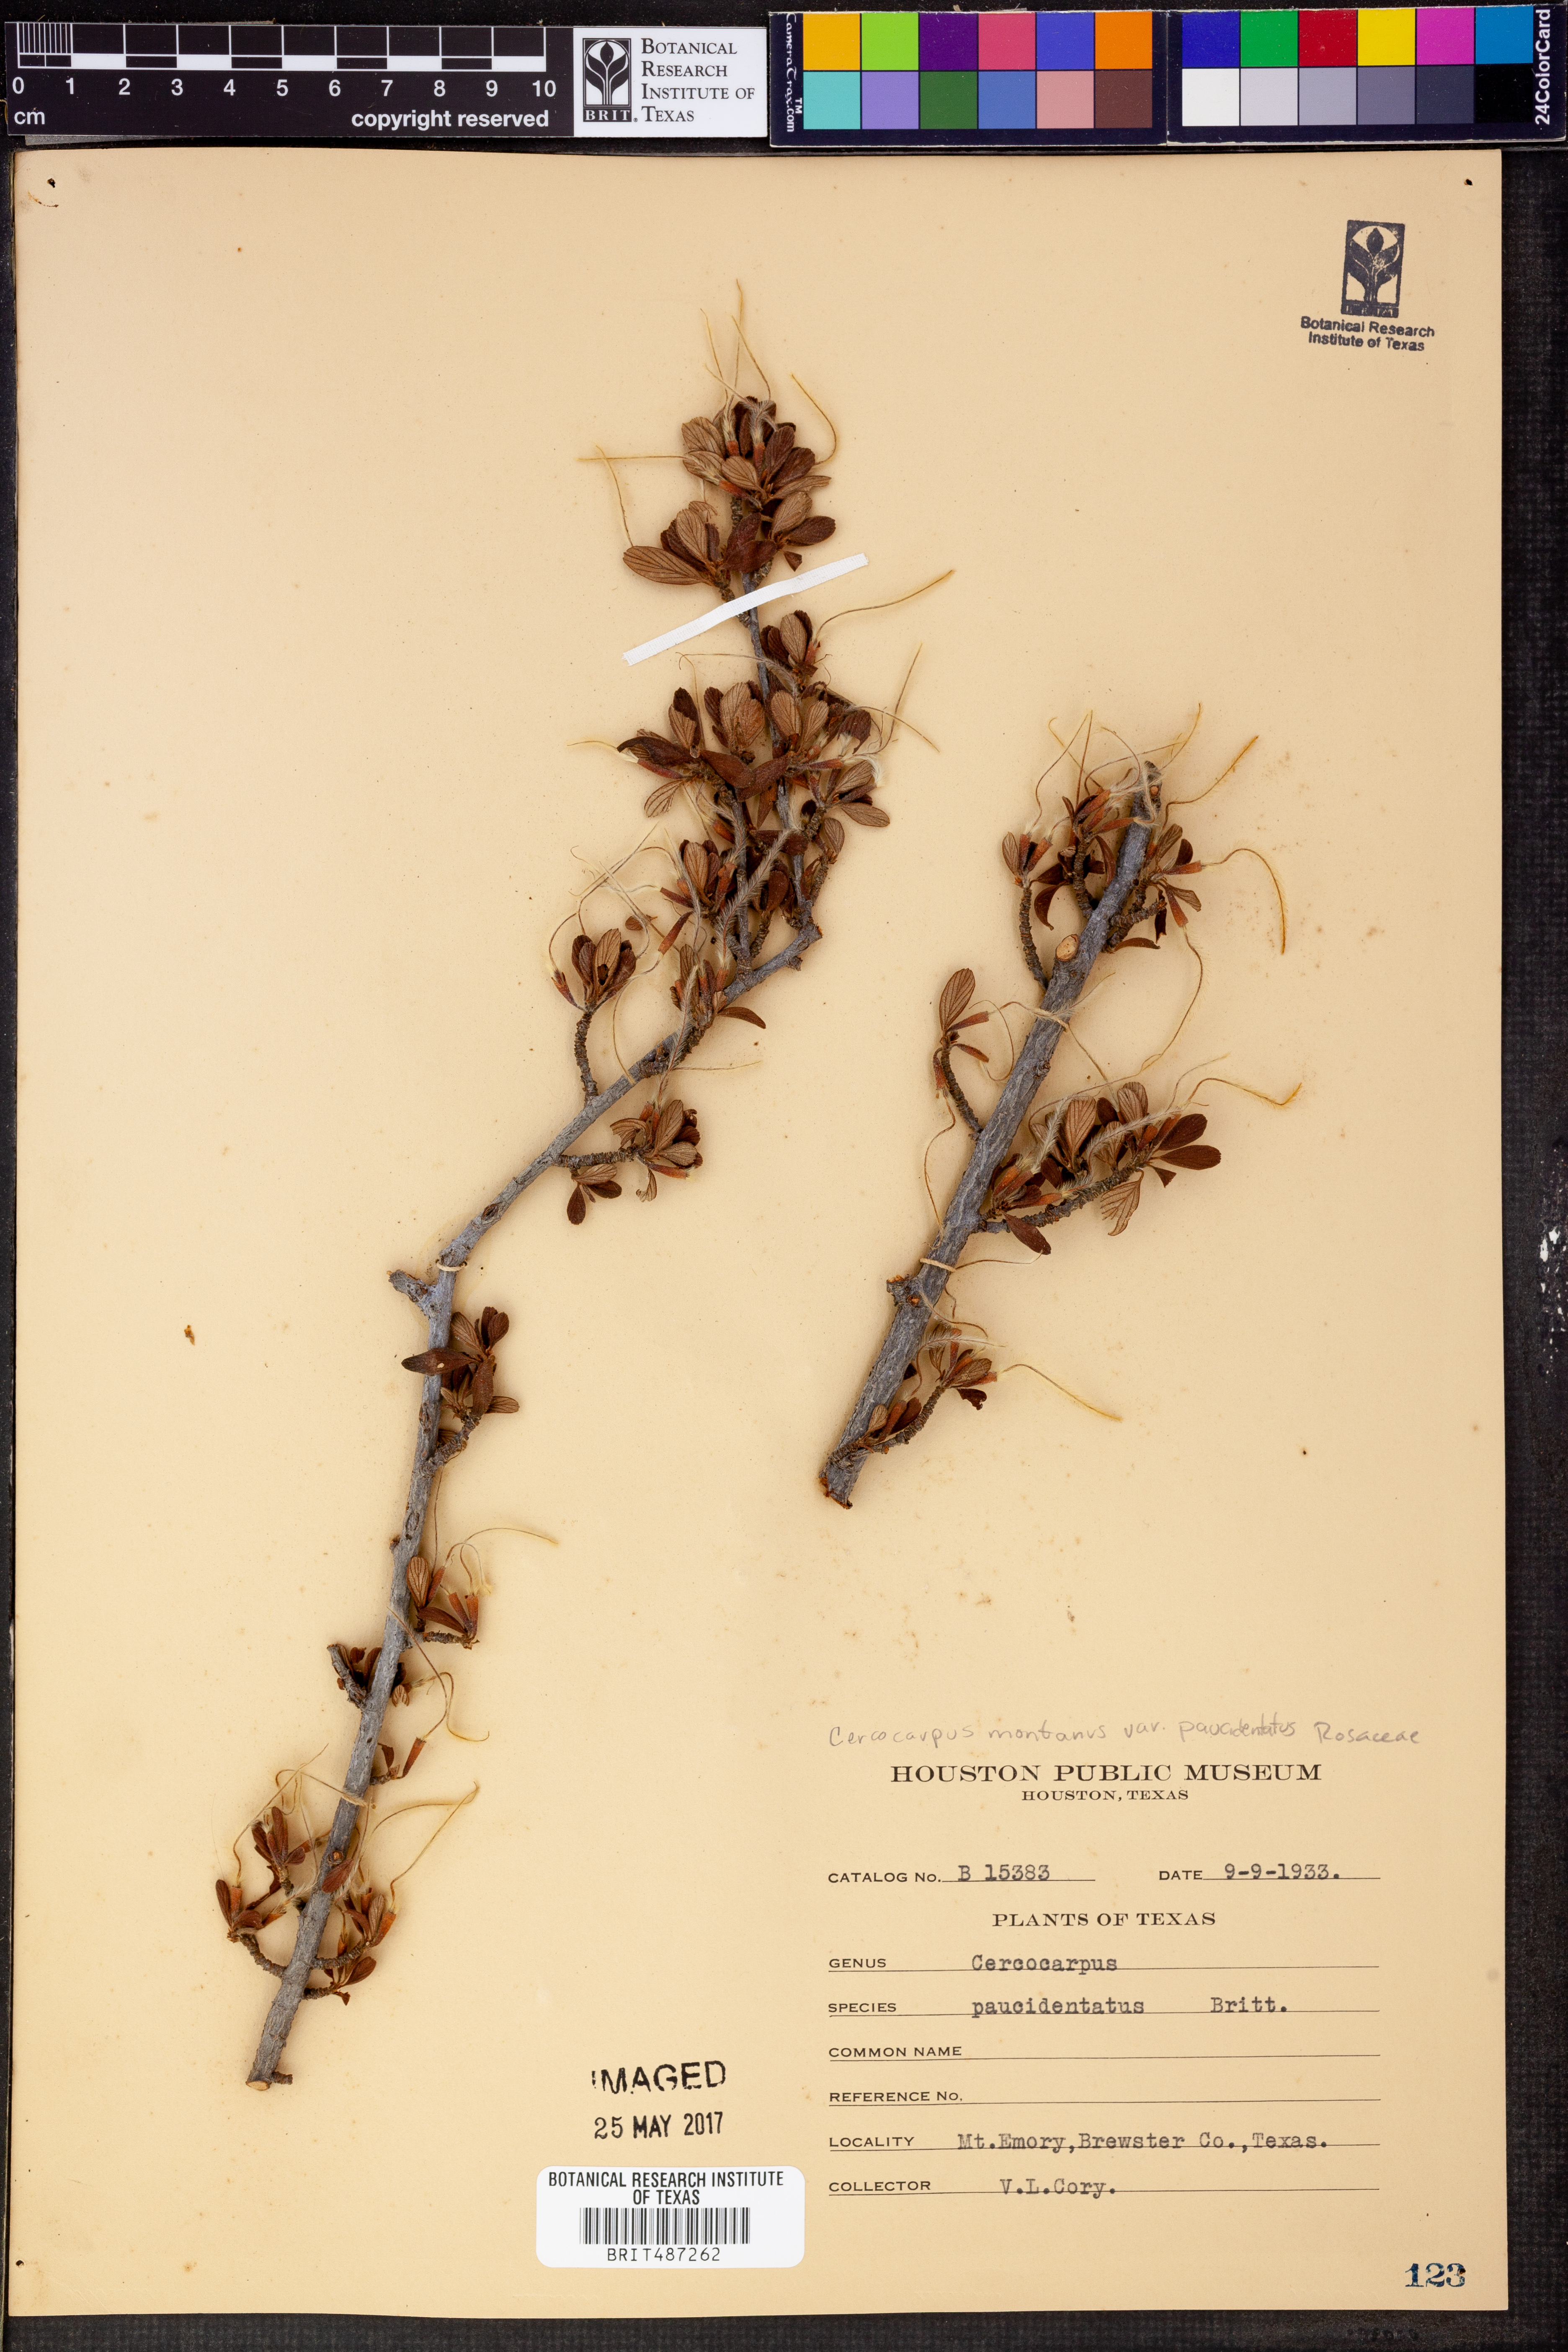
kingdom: Plantae
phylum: Tracheophyta
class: Magnoliopsida
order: Rosales
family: Rosaceae
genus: Cercocarpus
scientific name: Cercocarpus breviflorus
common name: Wright's mountain-mahogany
